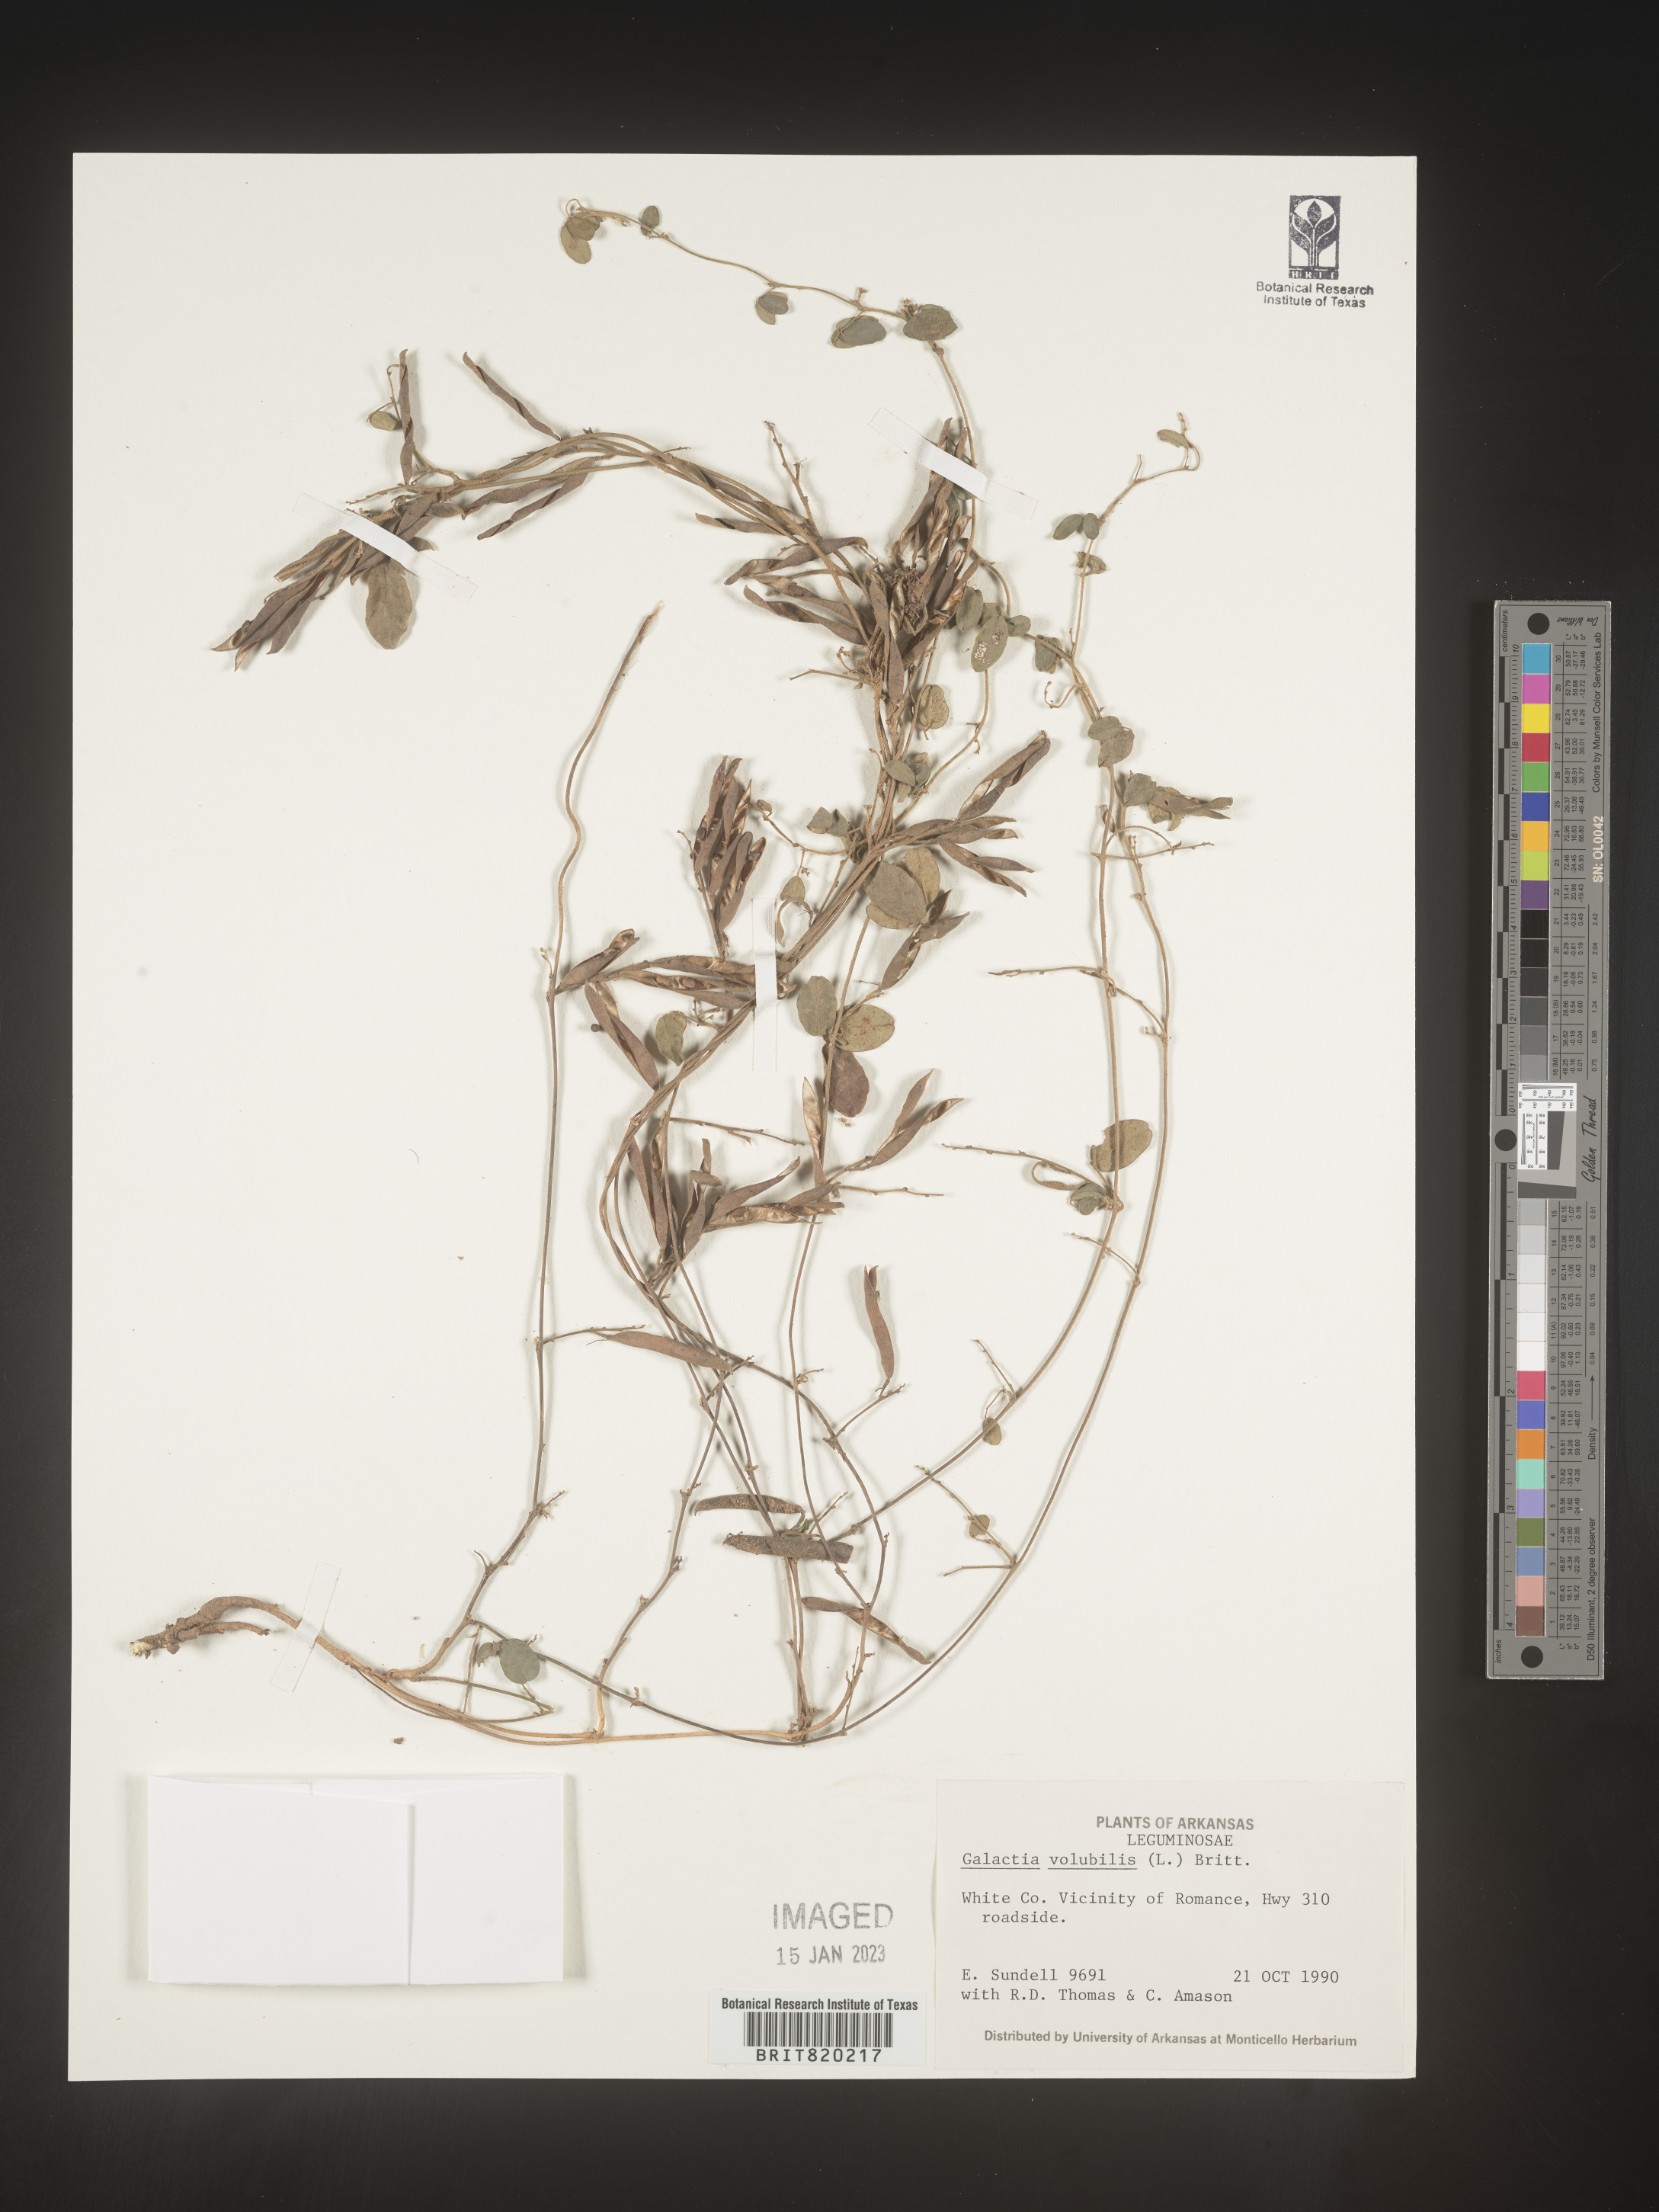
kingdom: Plantae
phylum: Tracheophyta
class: Magnoliopsida
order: Fabales
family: Fabaceae
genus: Galactia
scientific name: Galactia volubilis
